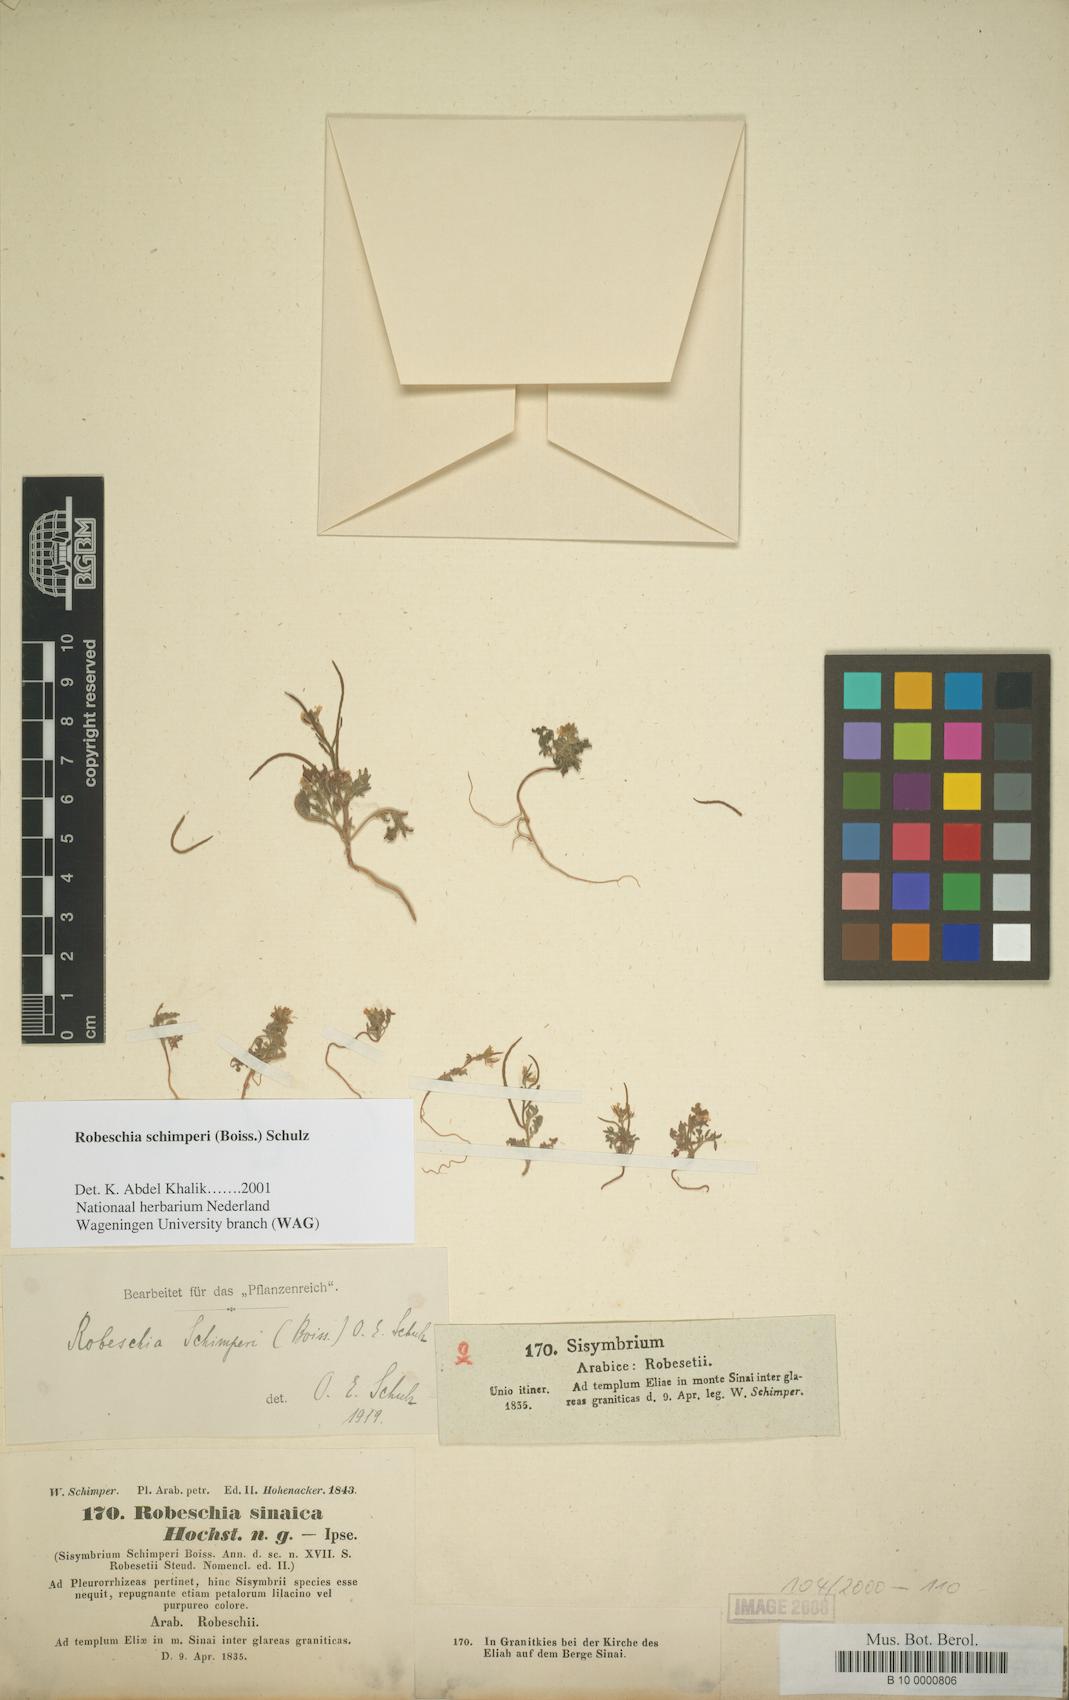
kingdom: Plantae
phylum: Tracheophyta
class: Magnoliopsida
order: Brassicales
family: Brassicaceae
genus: Robeschia
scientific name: Robeschia schimperi
